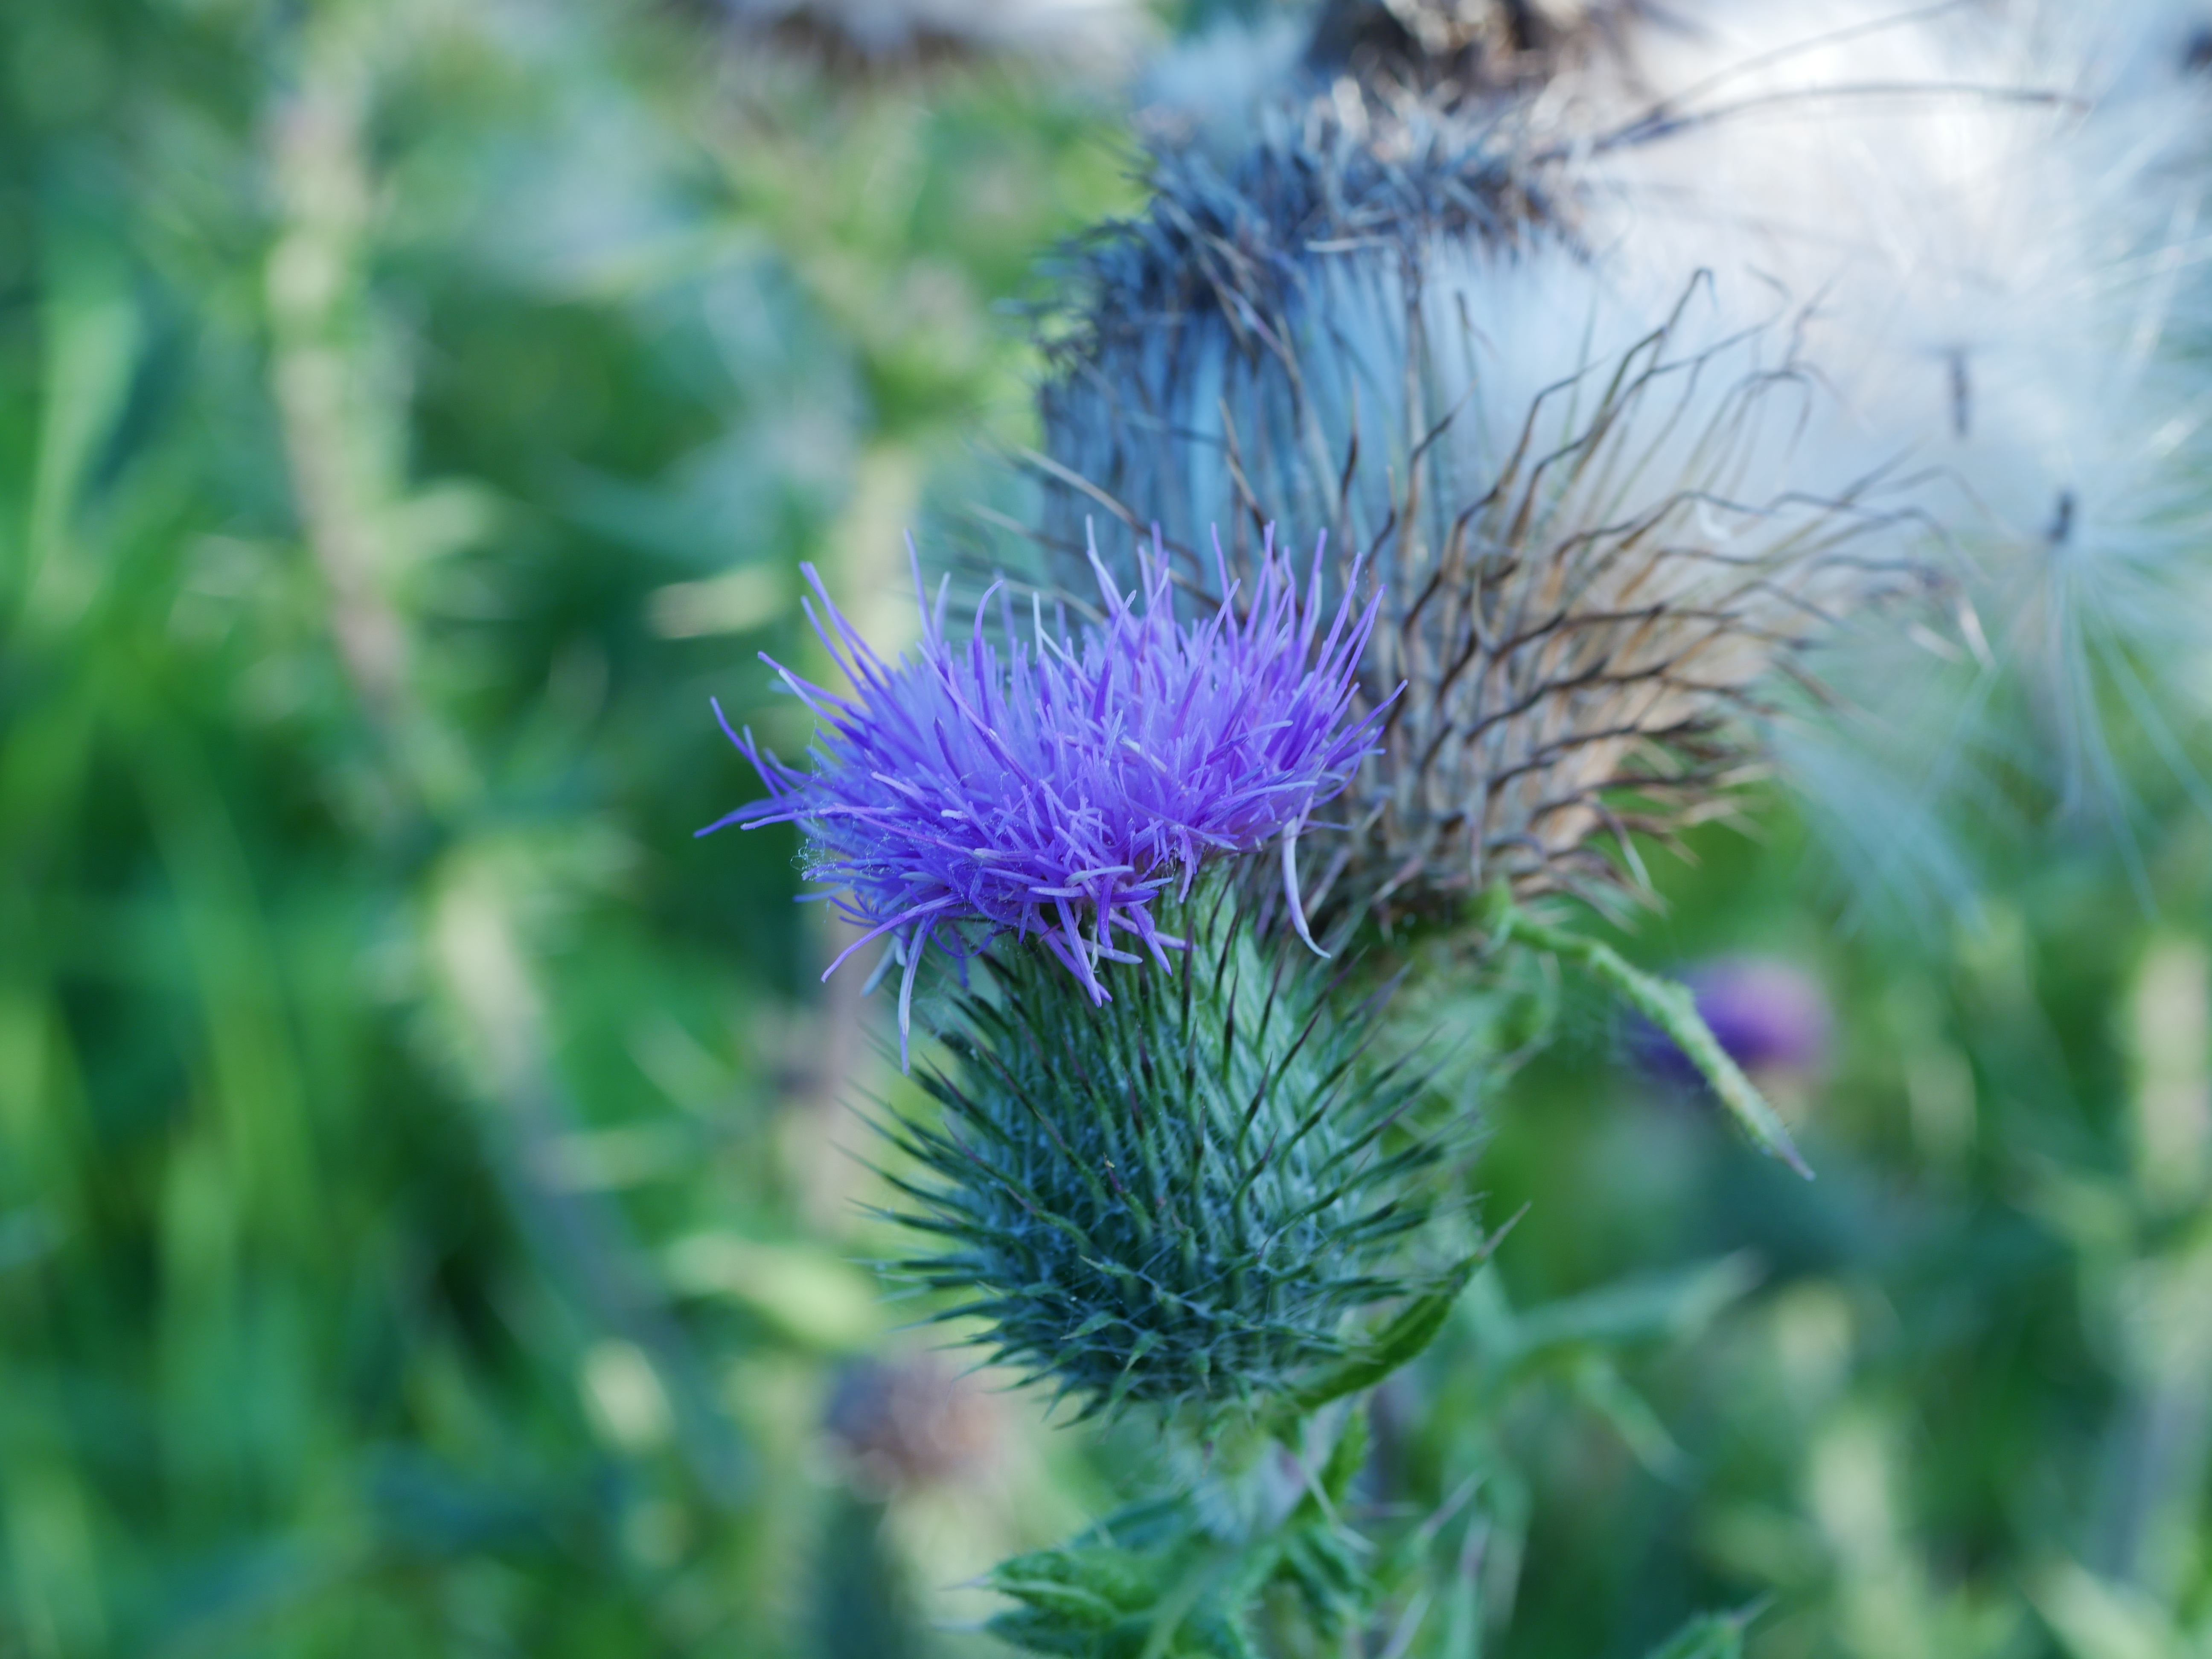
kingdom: Plantae
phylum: Tracheophyta
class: Magnoliopsida
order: Asterales
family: Asteraceae
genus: Cirsium
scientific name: Cirsium vulgare
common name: Horse-tidsel
